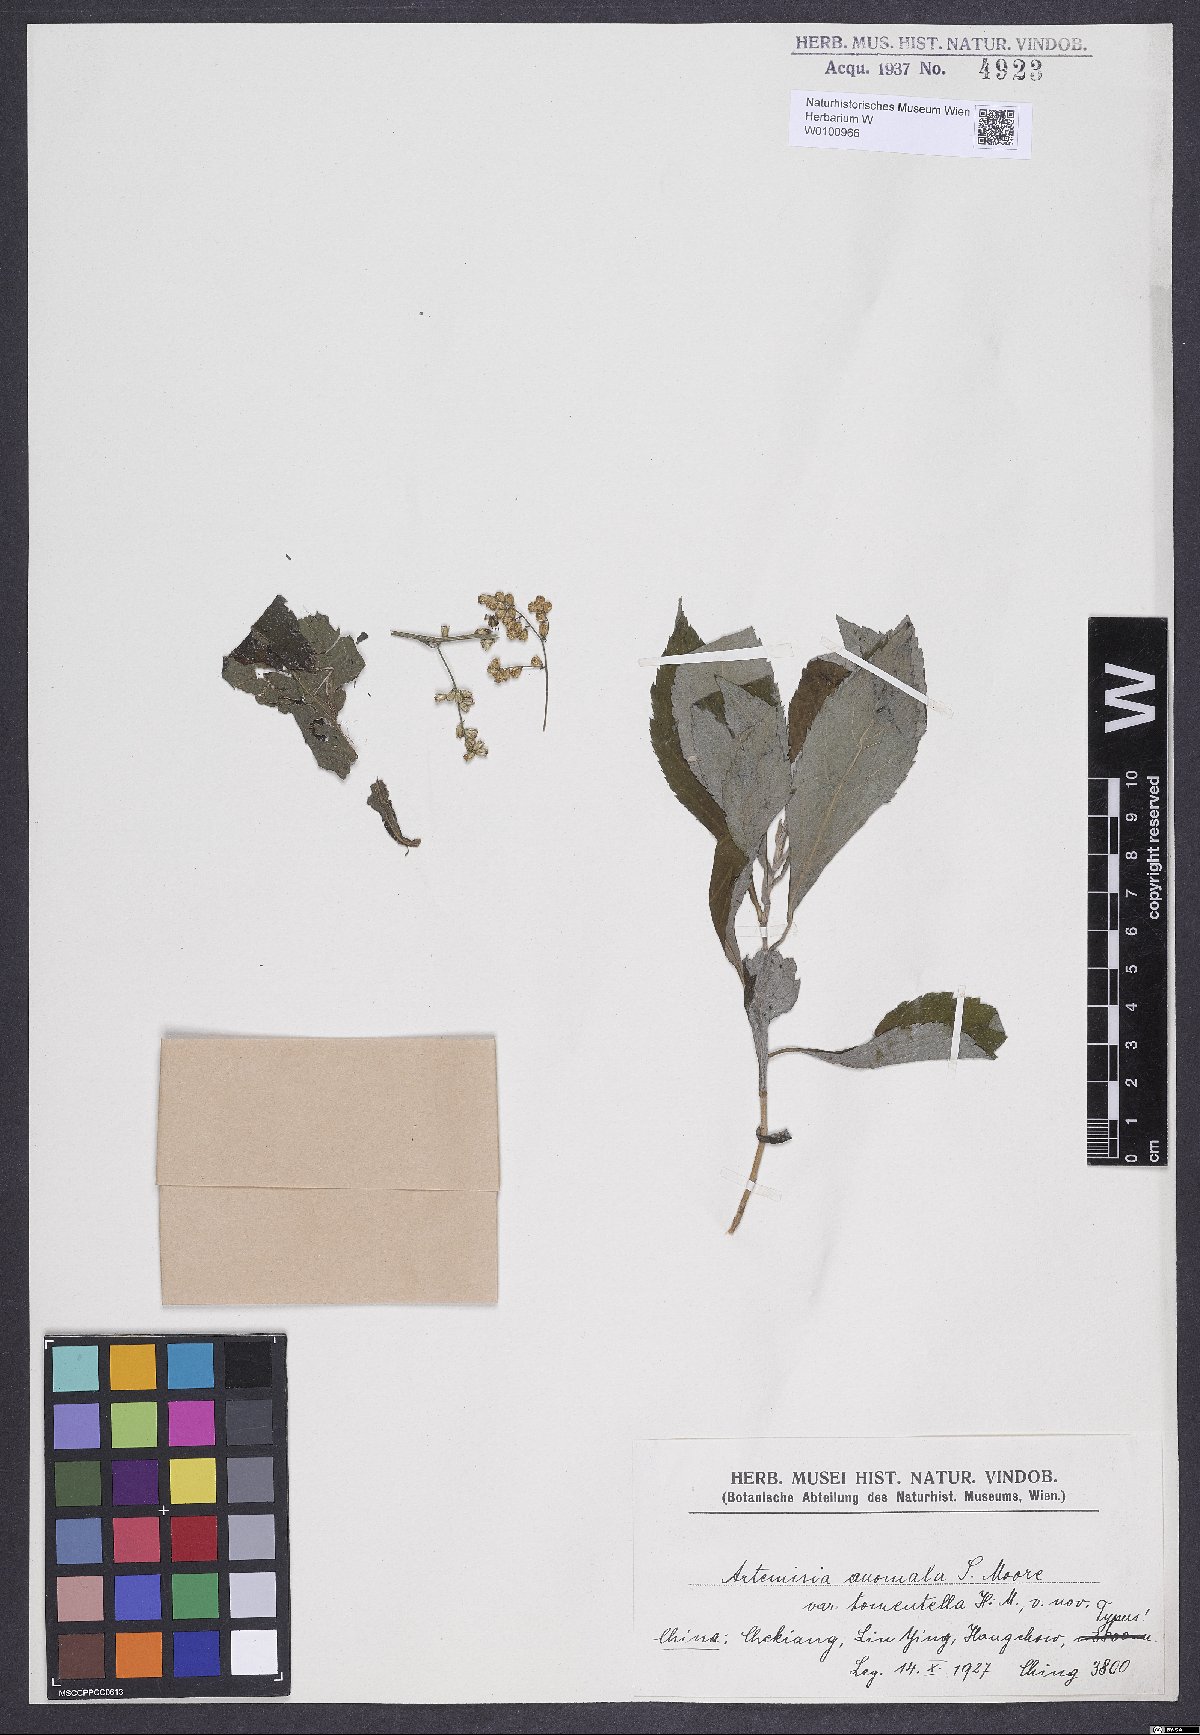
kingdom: Plantae
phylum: Tracheophyta
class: Magnoliopsida
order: Asterales
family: Asteraceae
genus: Artemisia
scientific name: Artemisia anomala
